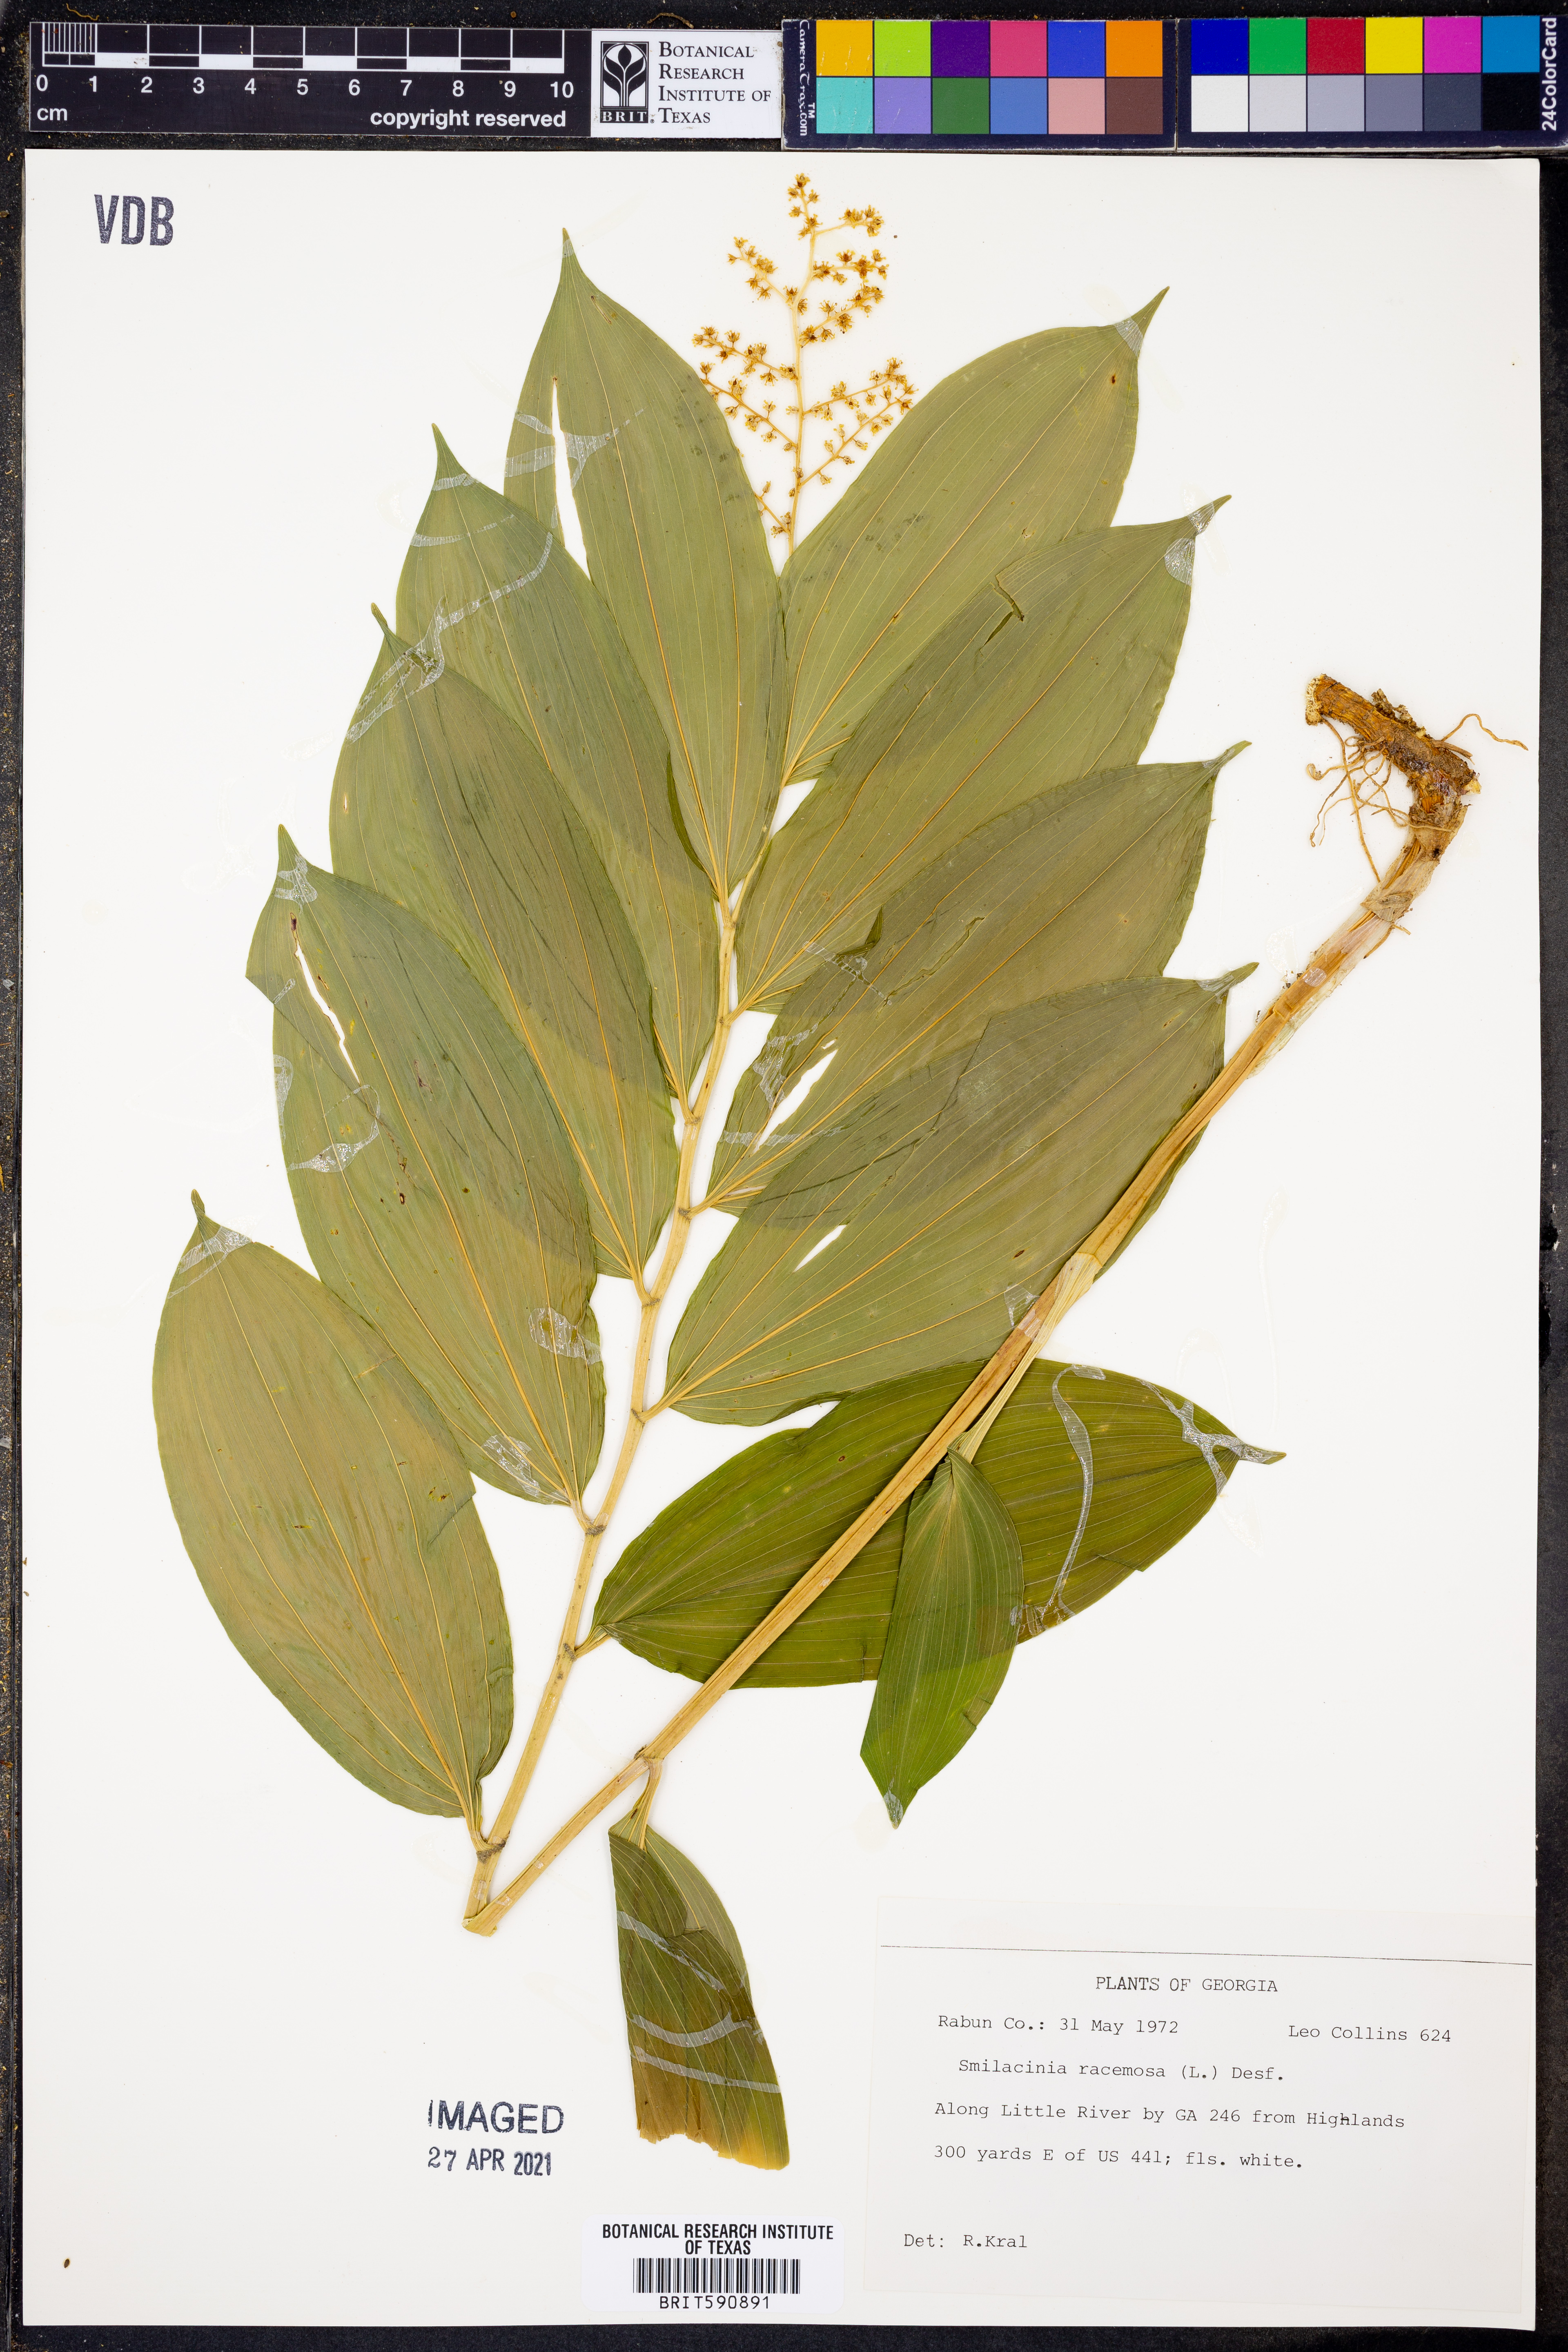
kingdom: Plantae
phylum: Tracheophyta
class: Liliopsida
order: Asparagales
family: Asparagaceae
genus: Maianthemum
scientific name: Maianthemum racemosum
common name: False spikenard
